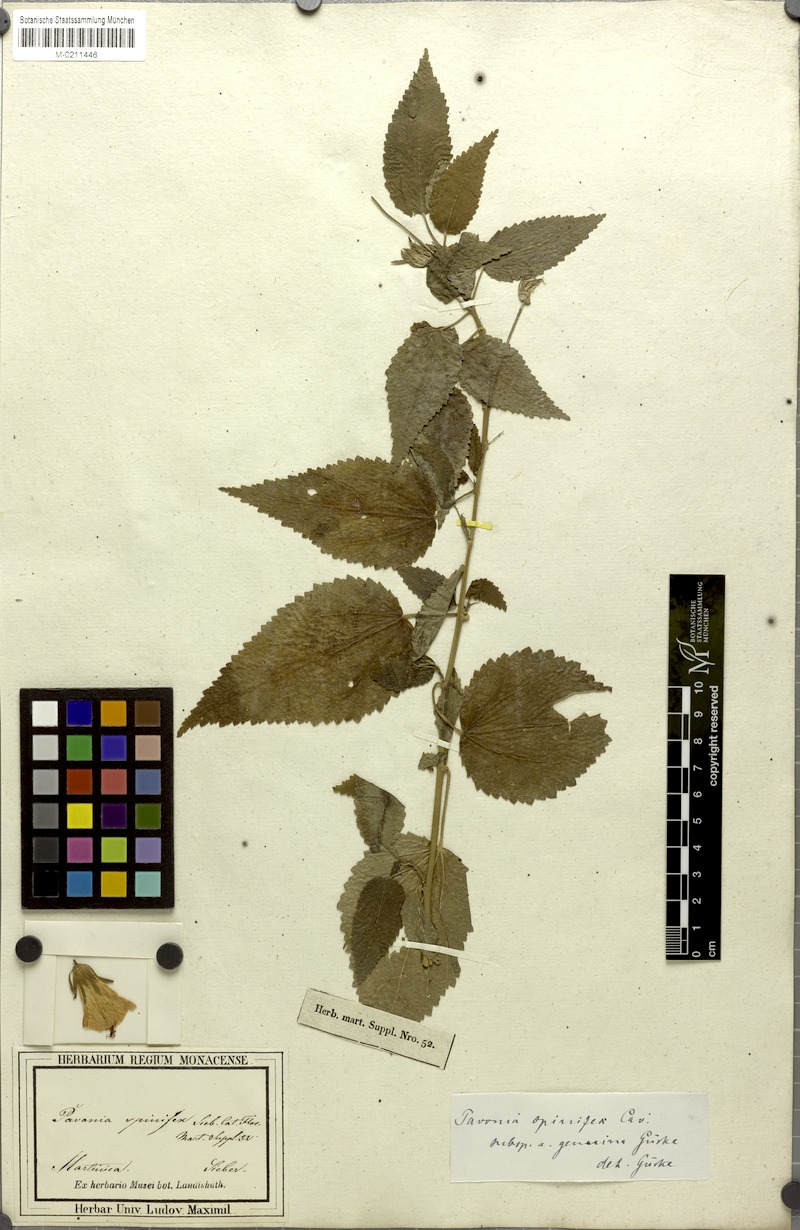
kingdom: Plantae
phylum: Tracheophyta
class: Magnoliopsida
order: Malvales
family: Malvaceae
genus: Pavonia
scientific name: Pavonia spinifex
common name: Ginger bush
